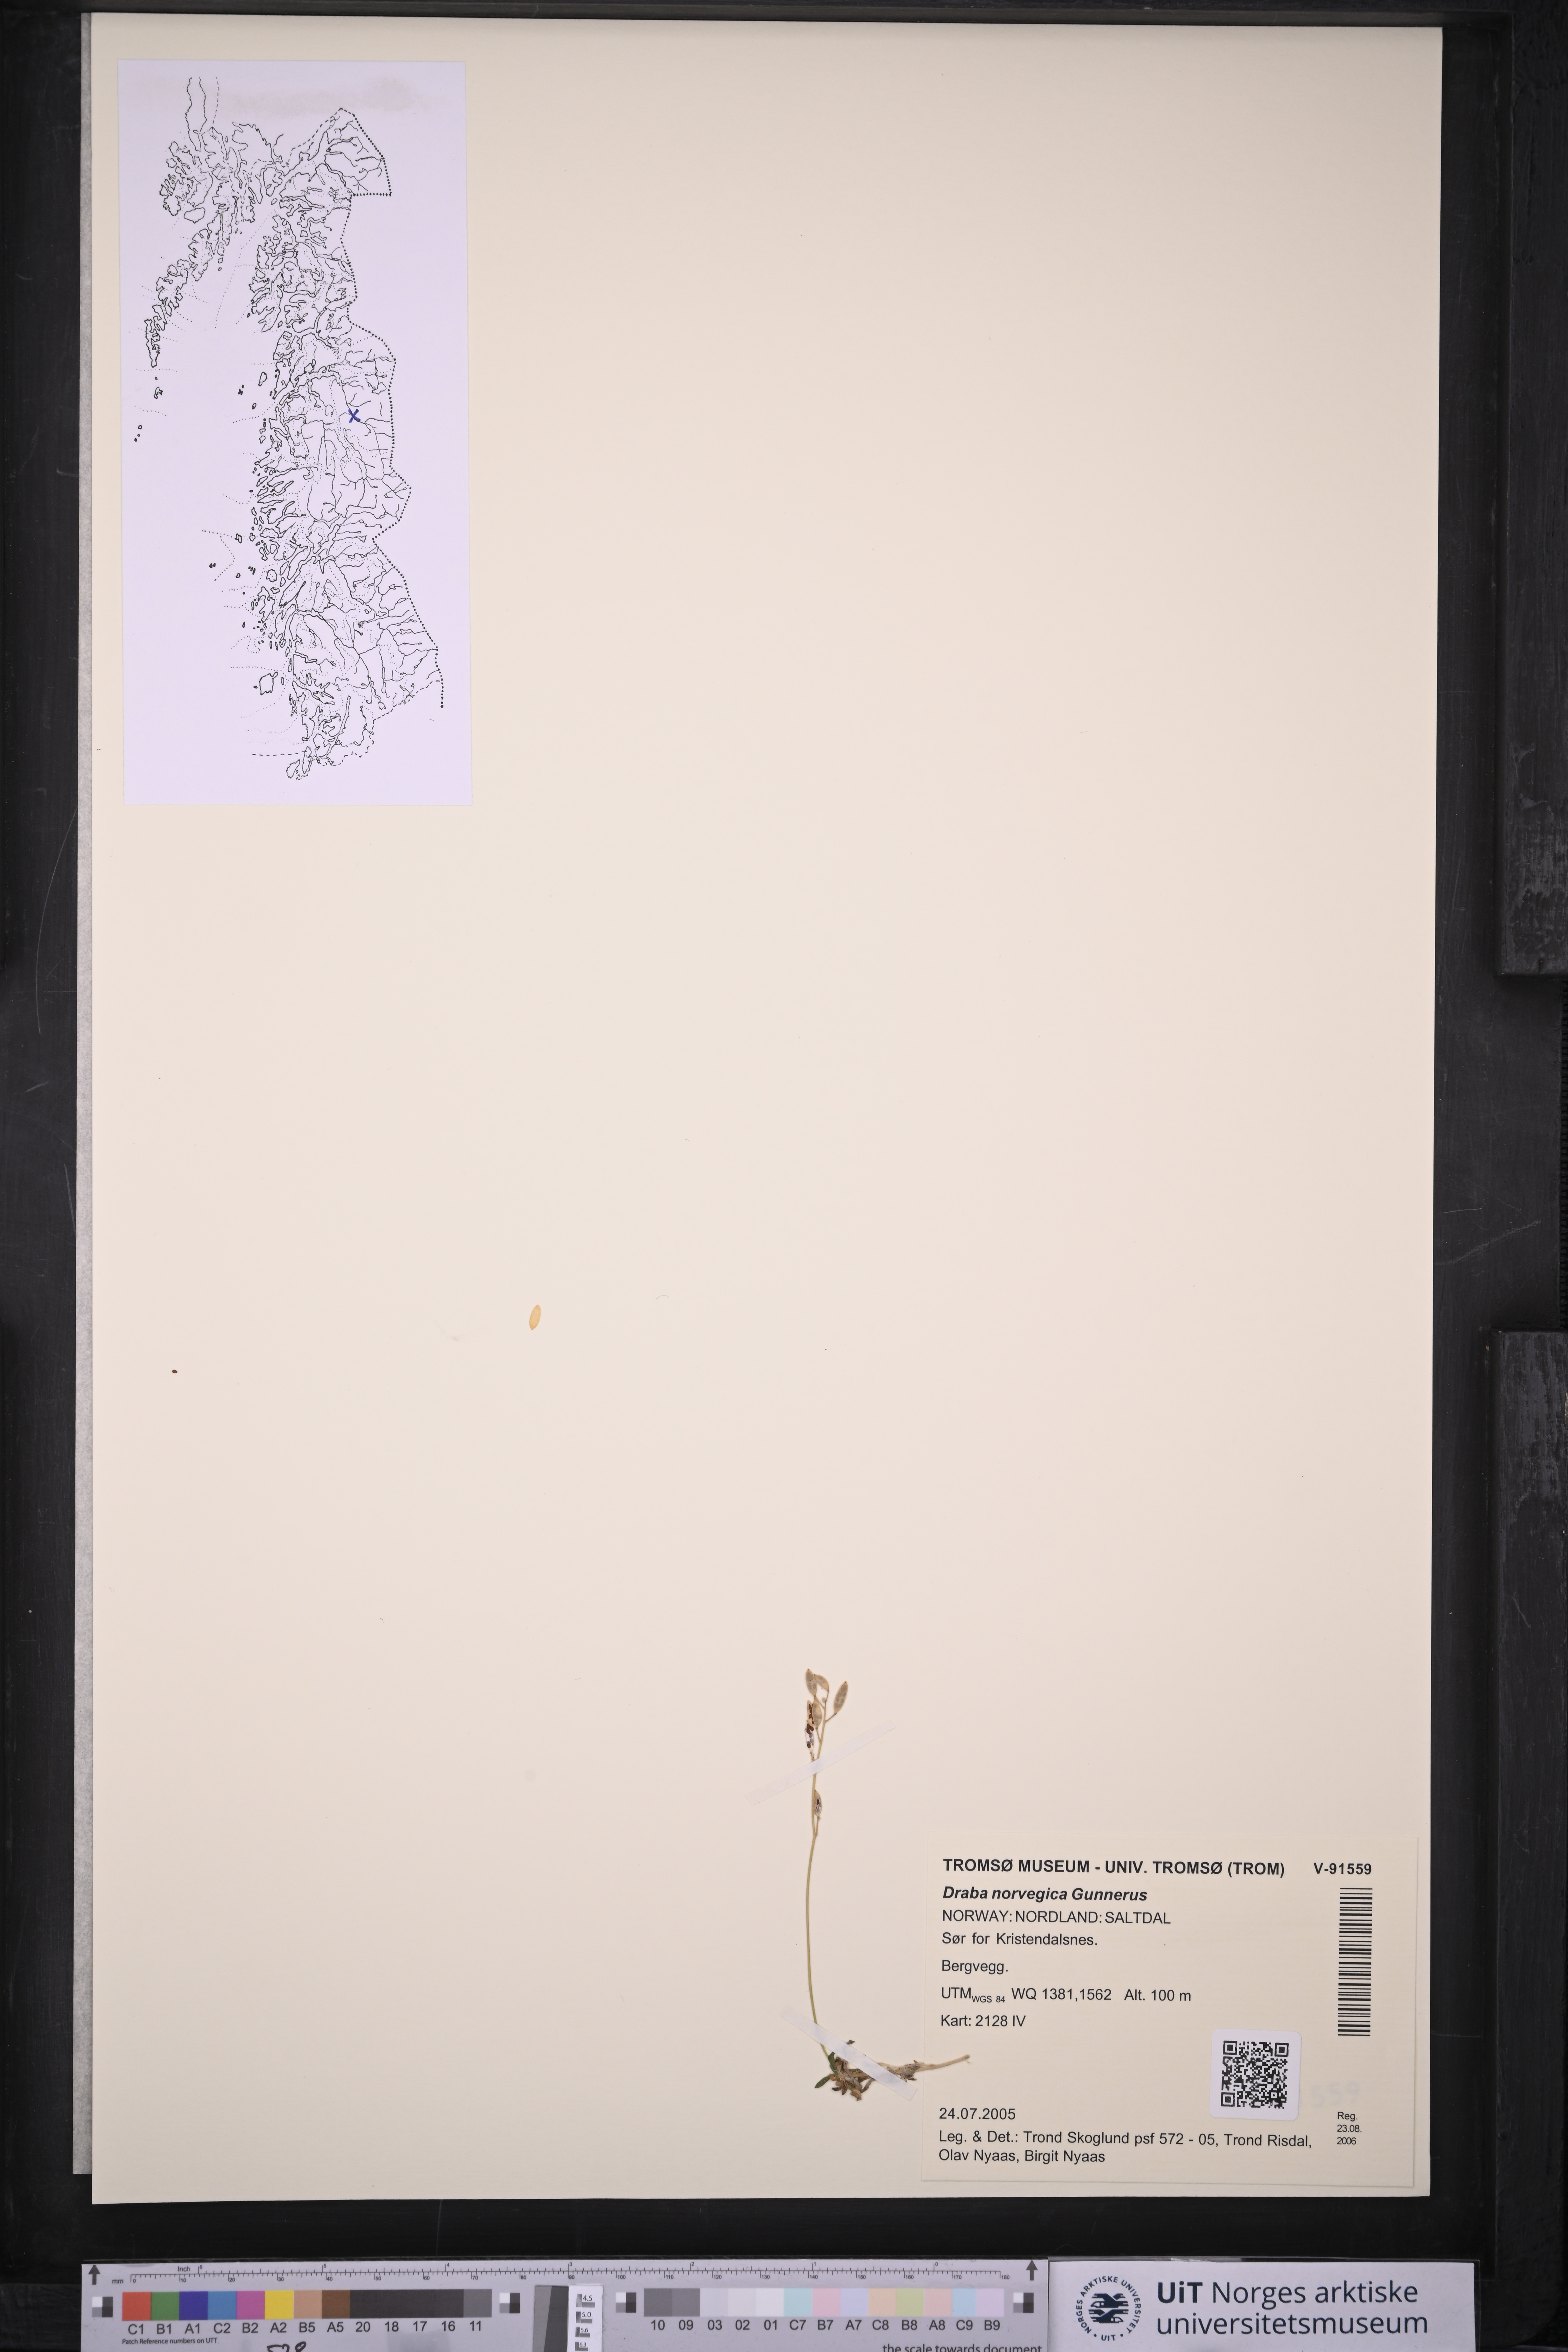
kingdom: Plantae
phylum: Tracheophyta
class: Magnoliopsida
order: Brassicales
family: Brassicaceae
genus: Draba
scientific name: Draba norvegica
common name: Rock whitlowgrass
